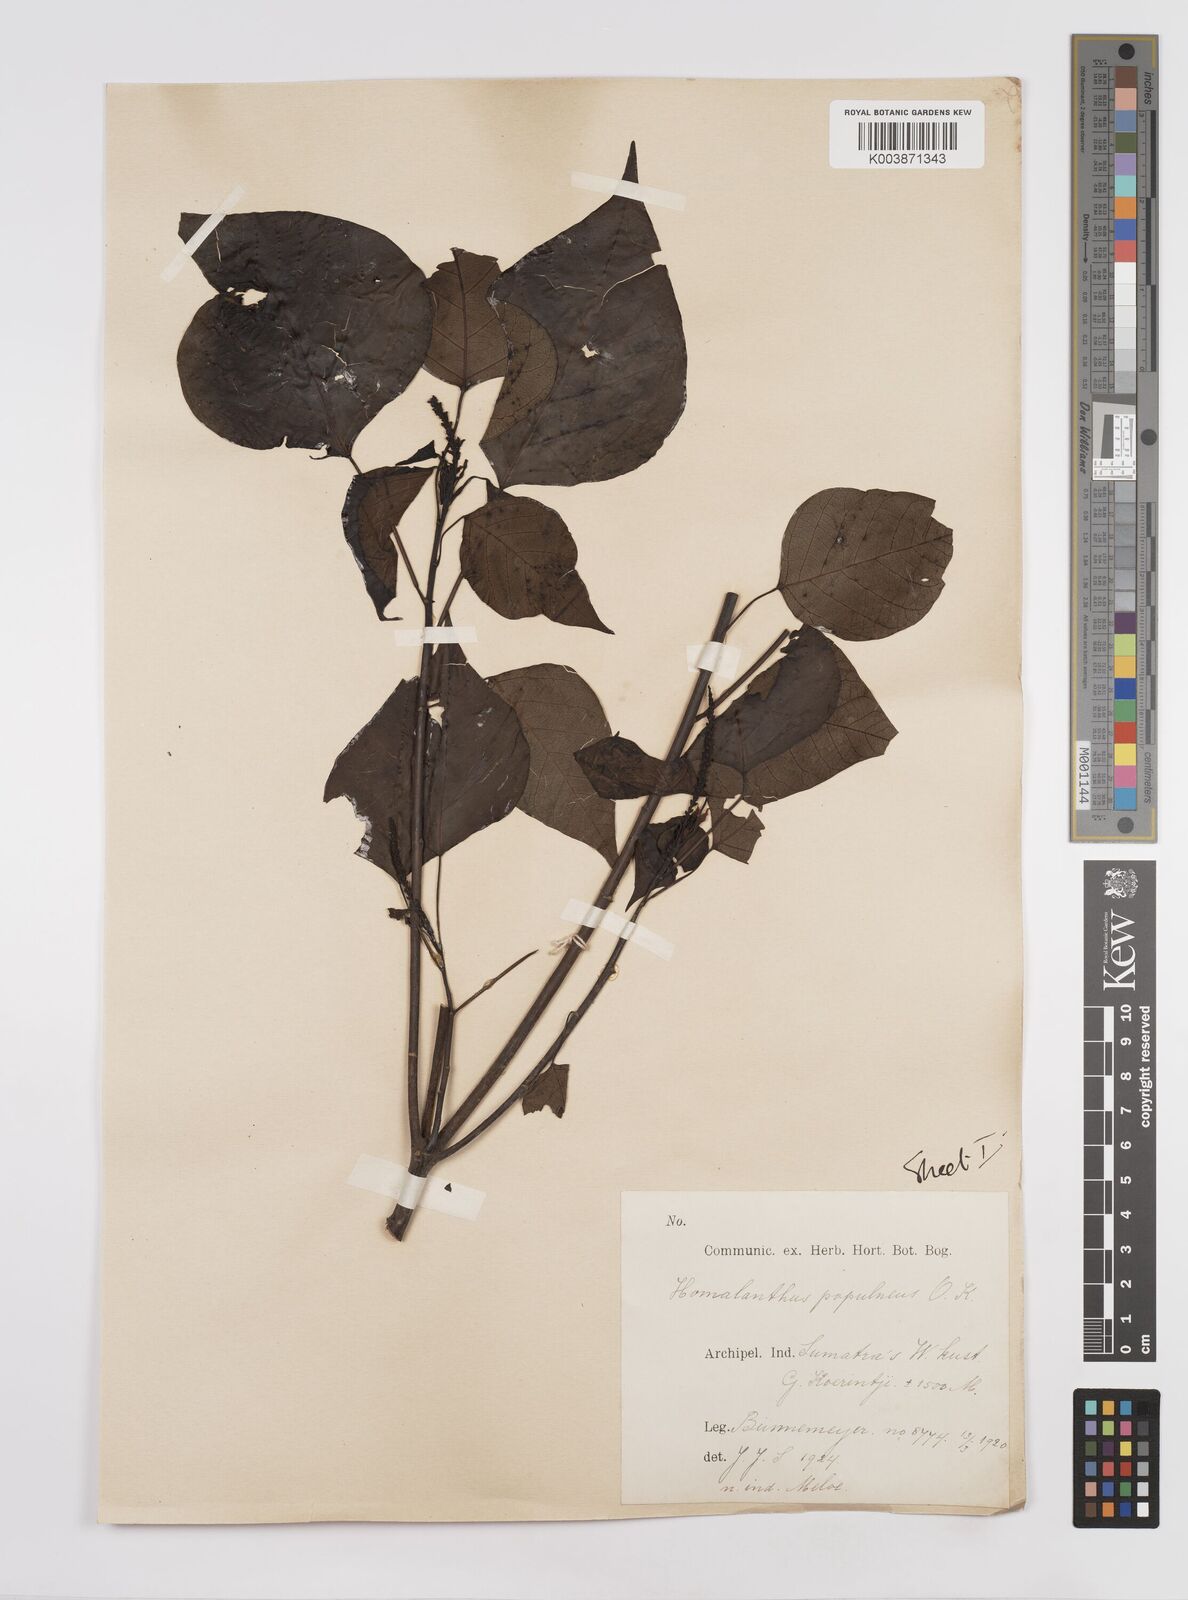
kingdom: Plantae
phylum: Tracheophyta
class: Magnoliopsida
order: Malpighiales
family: Euphorbiaceae
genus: Homalanthus
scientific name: Homalanthus populneus
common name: Spurge
